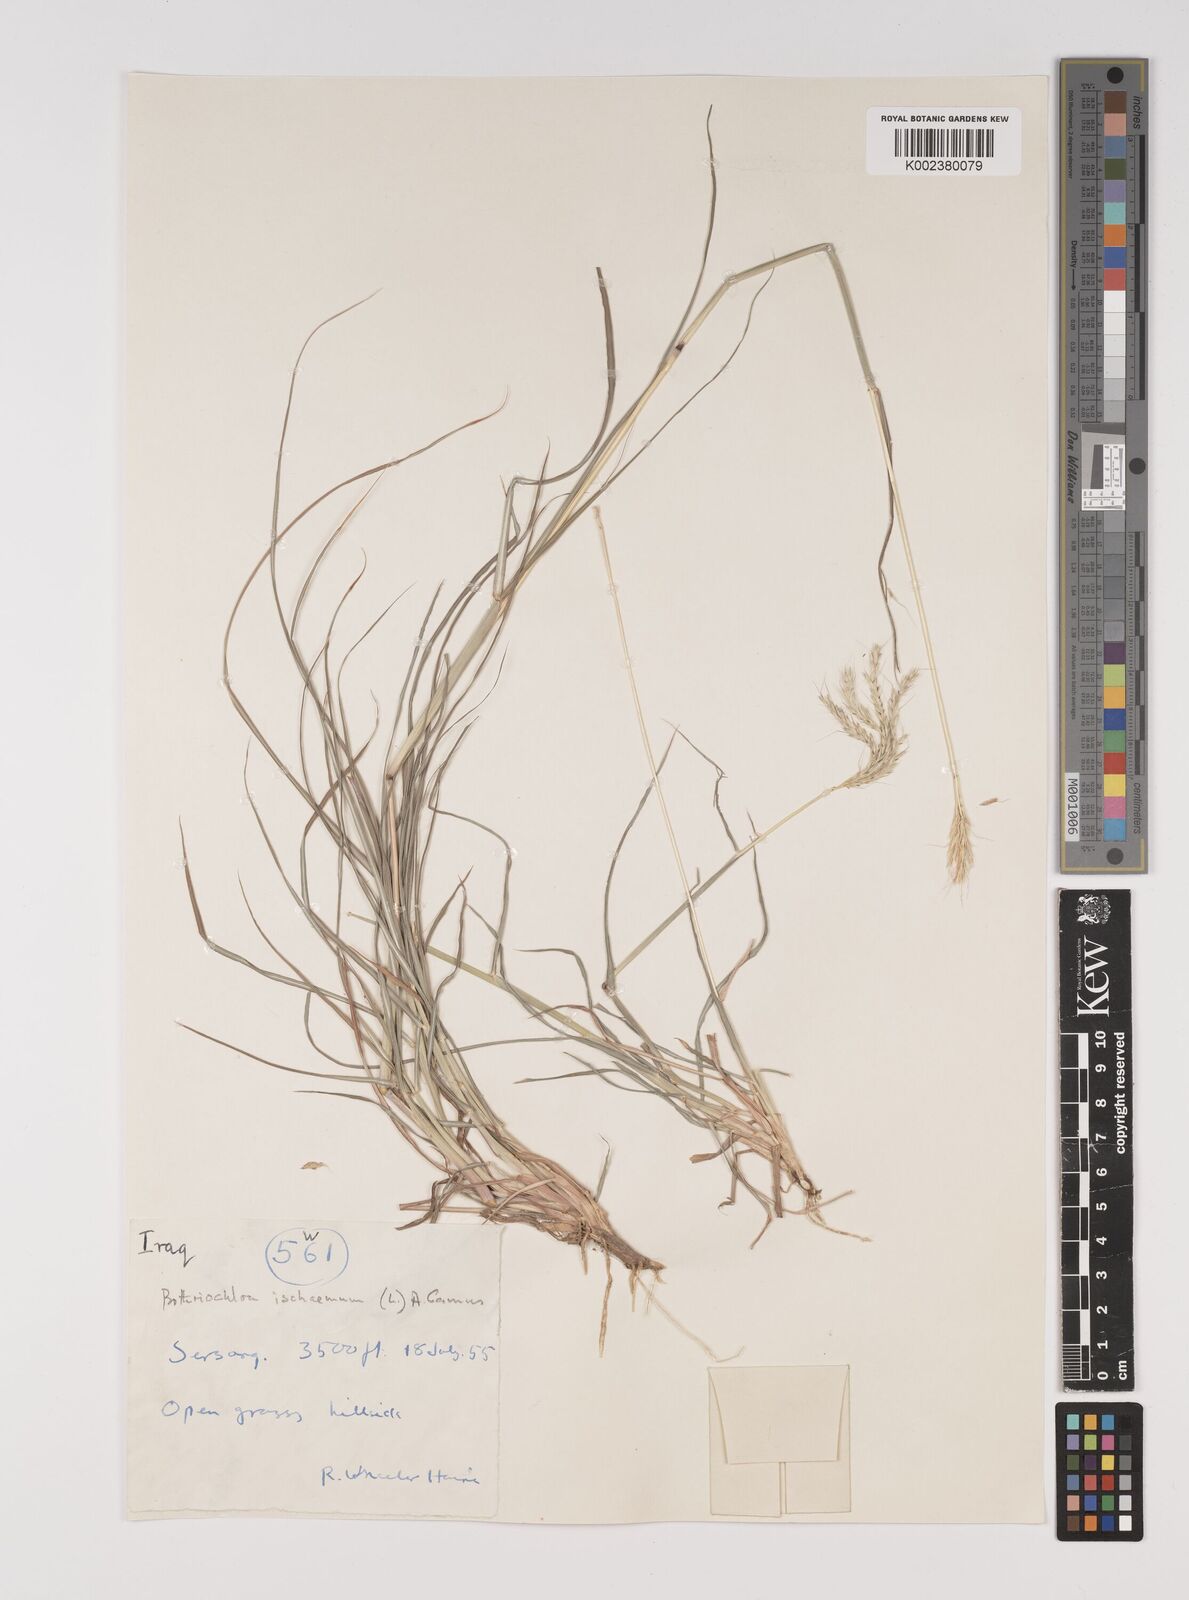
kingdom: Plantae
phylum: Tracheophyta
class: Liliopsida
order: Poales
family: Poaceae
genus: Bothriochloa
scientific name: Bothriochloa ischaemum
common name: Yellow bluestem
